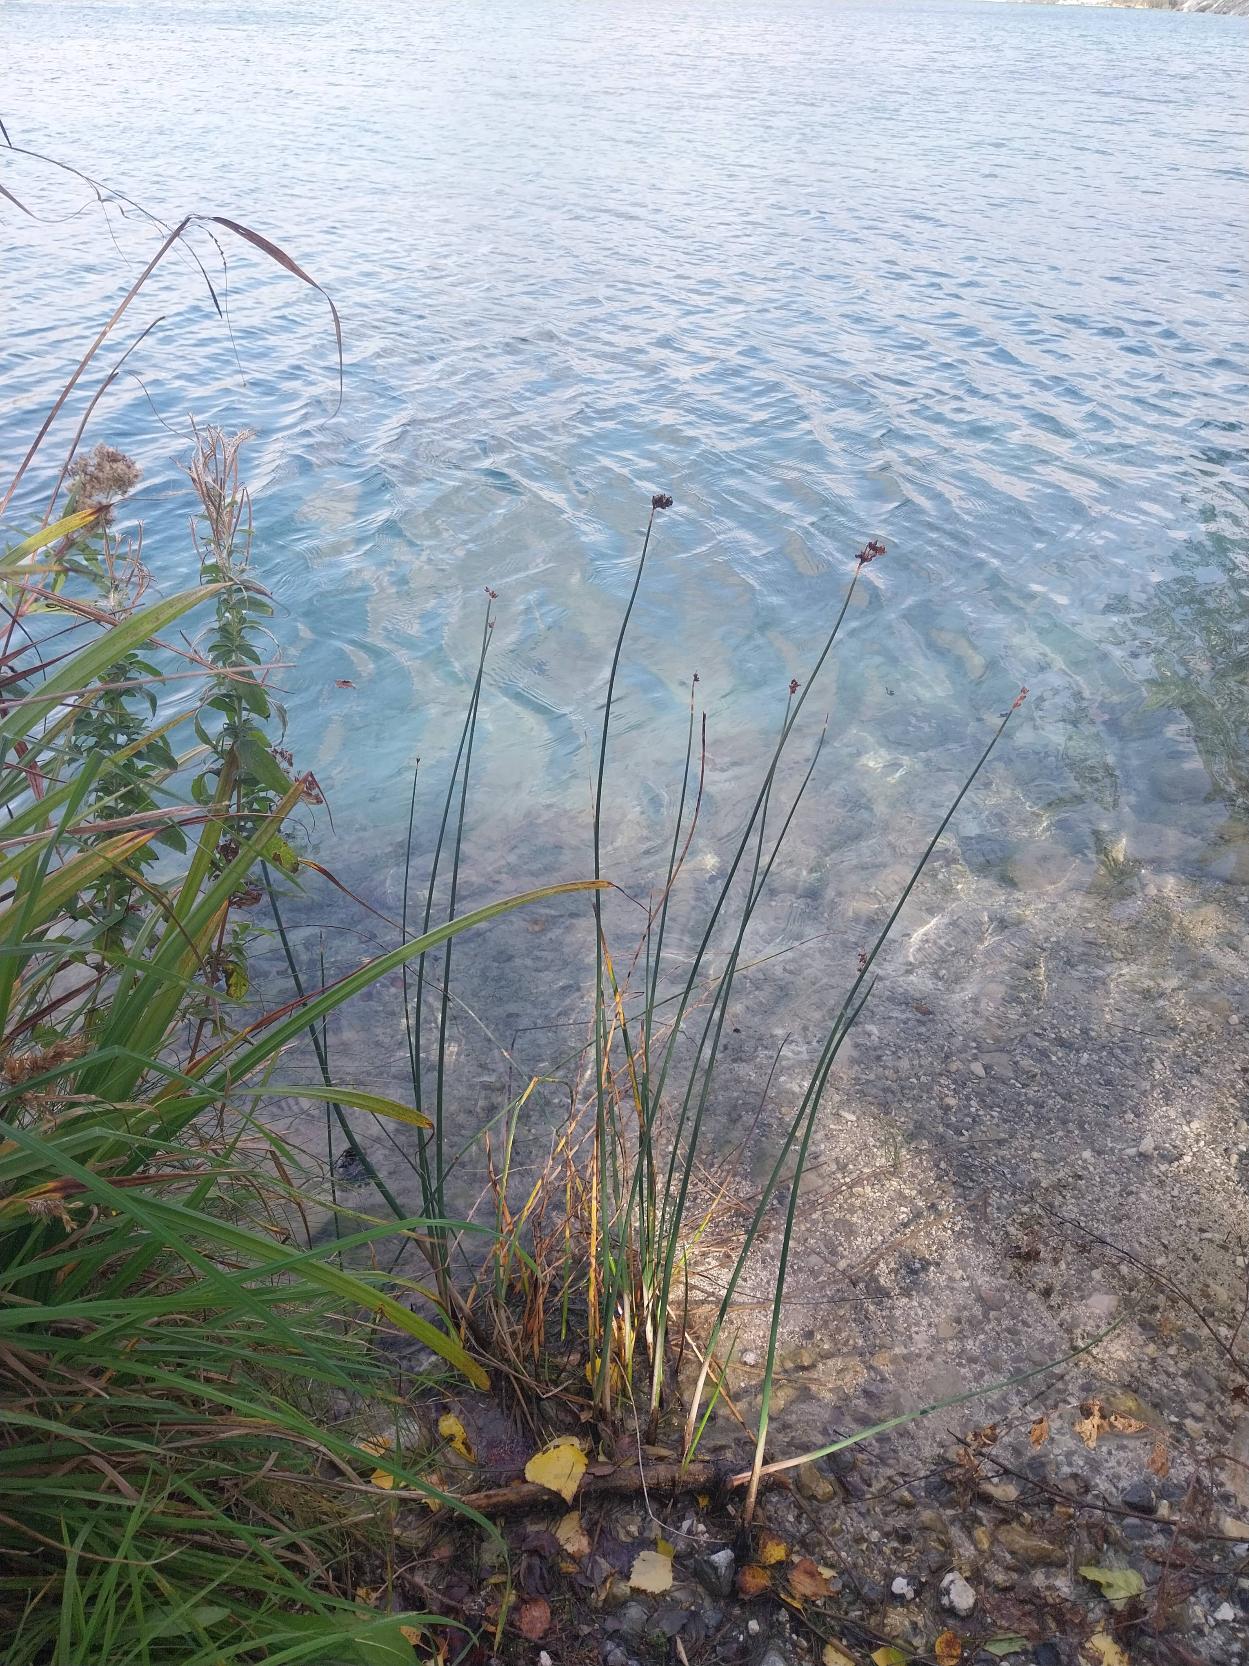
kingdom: Plantae
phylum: Tracheophyta
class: Liliopsida
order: Poales
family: Cyperaceae
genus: Schoenoplectus
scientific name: Schoenoplectus lacustris
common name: Sø-kogleaks
